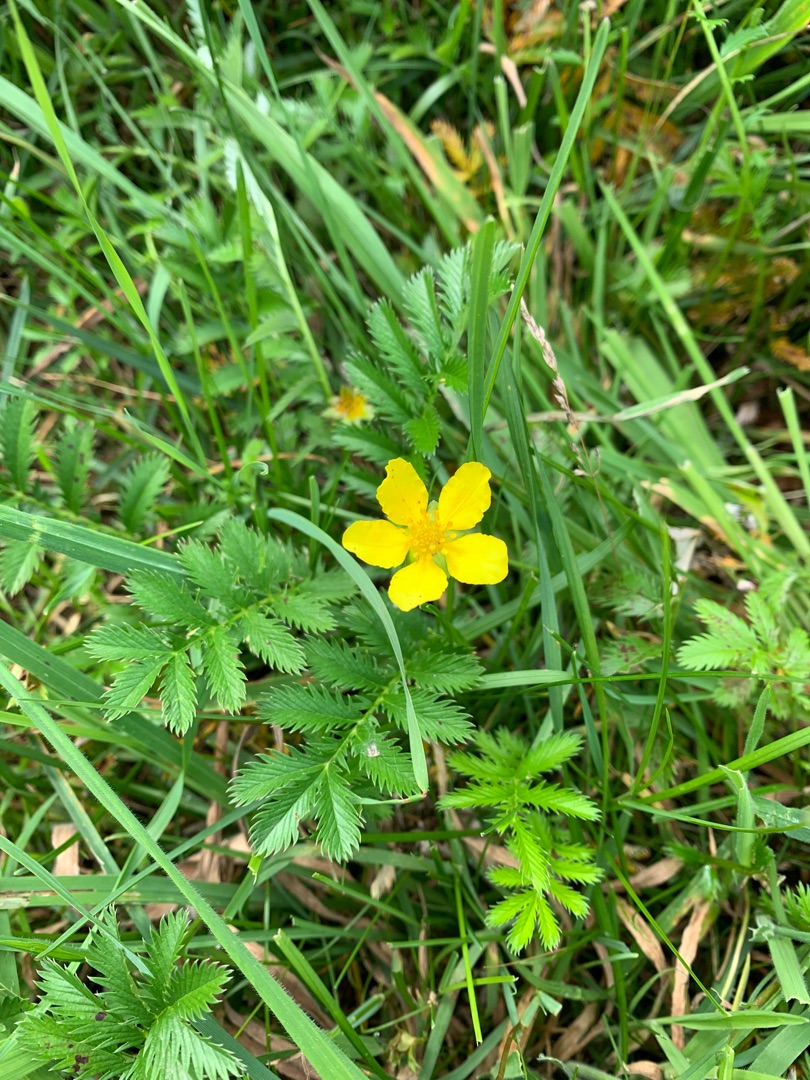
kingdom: Plantae
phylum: Tracheophyta
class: Magnoliopsida
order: Rosales
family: Rosaceae
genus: Argentina
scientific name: Argentina anserina
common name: Gåsepotentil
